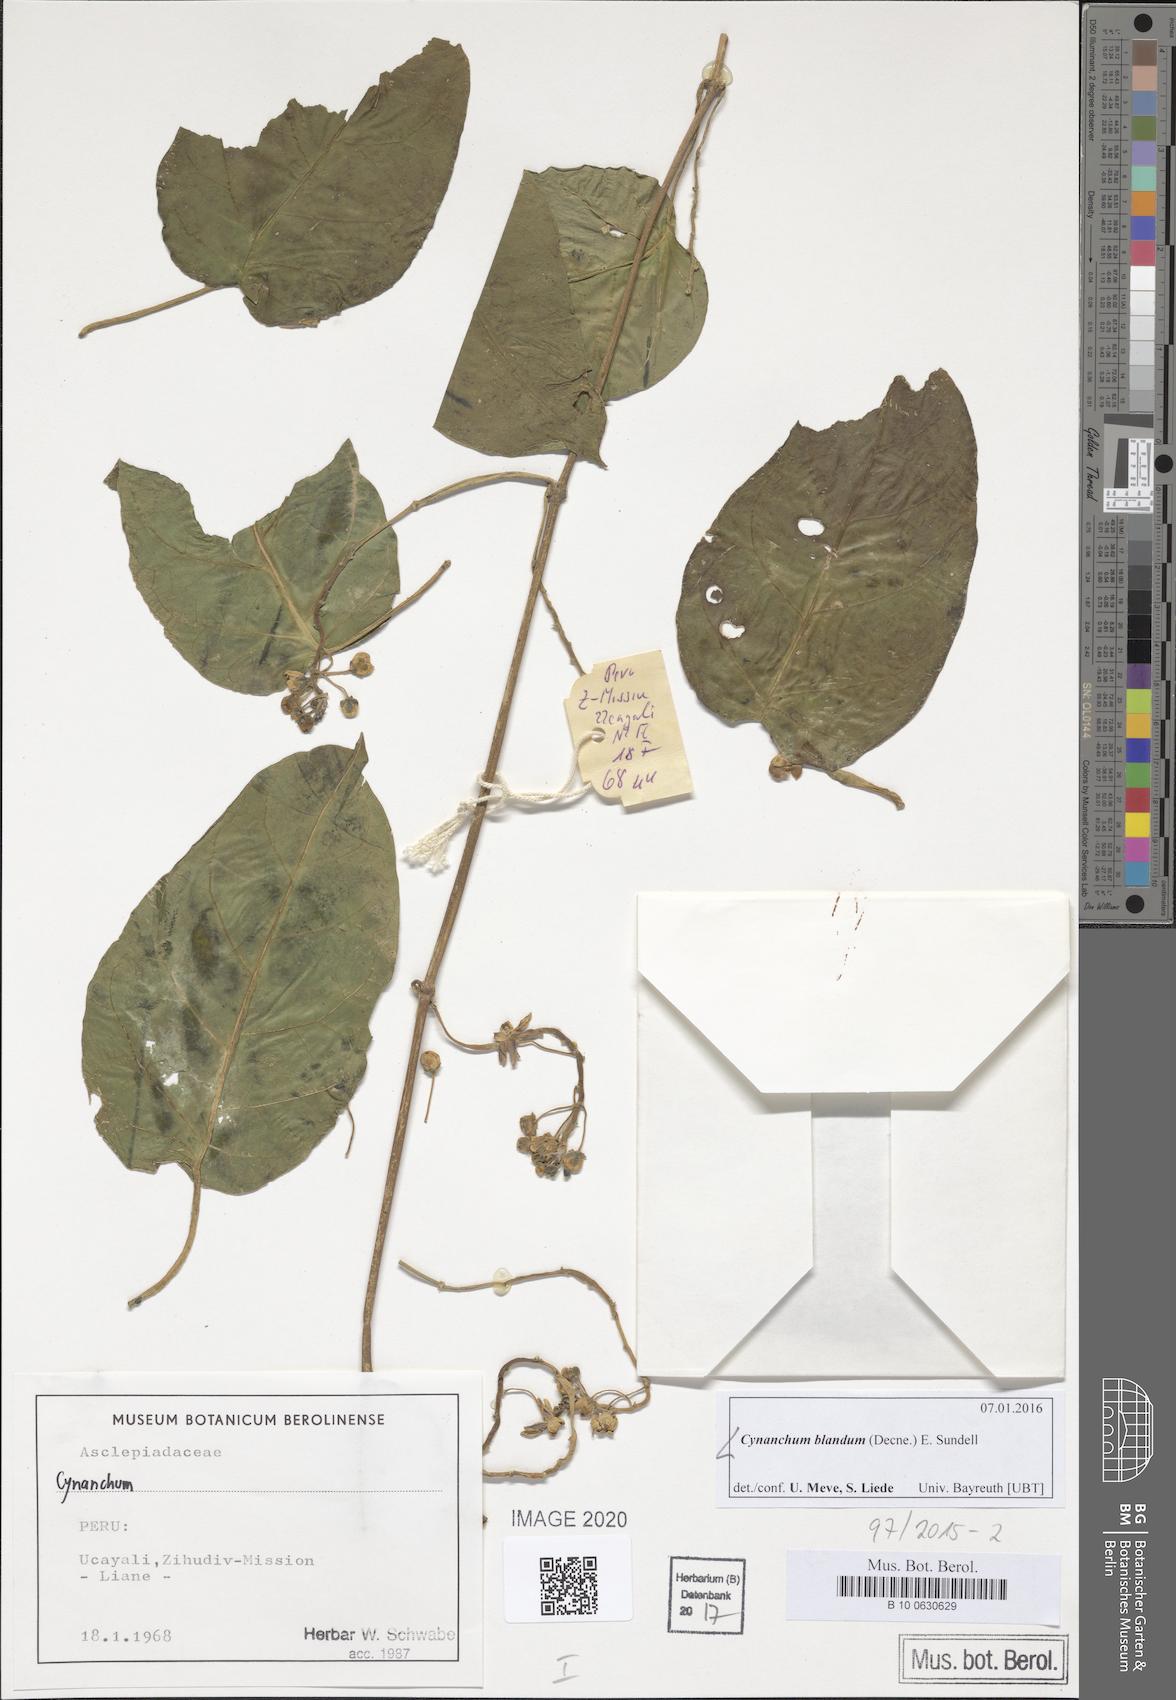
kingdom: Plantae
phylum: Tracheophyta
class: Magnoliopsida
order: Gentianales
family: Apocynaceae
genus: Cynanchum
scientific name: Cynanchum blandum
